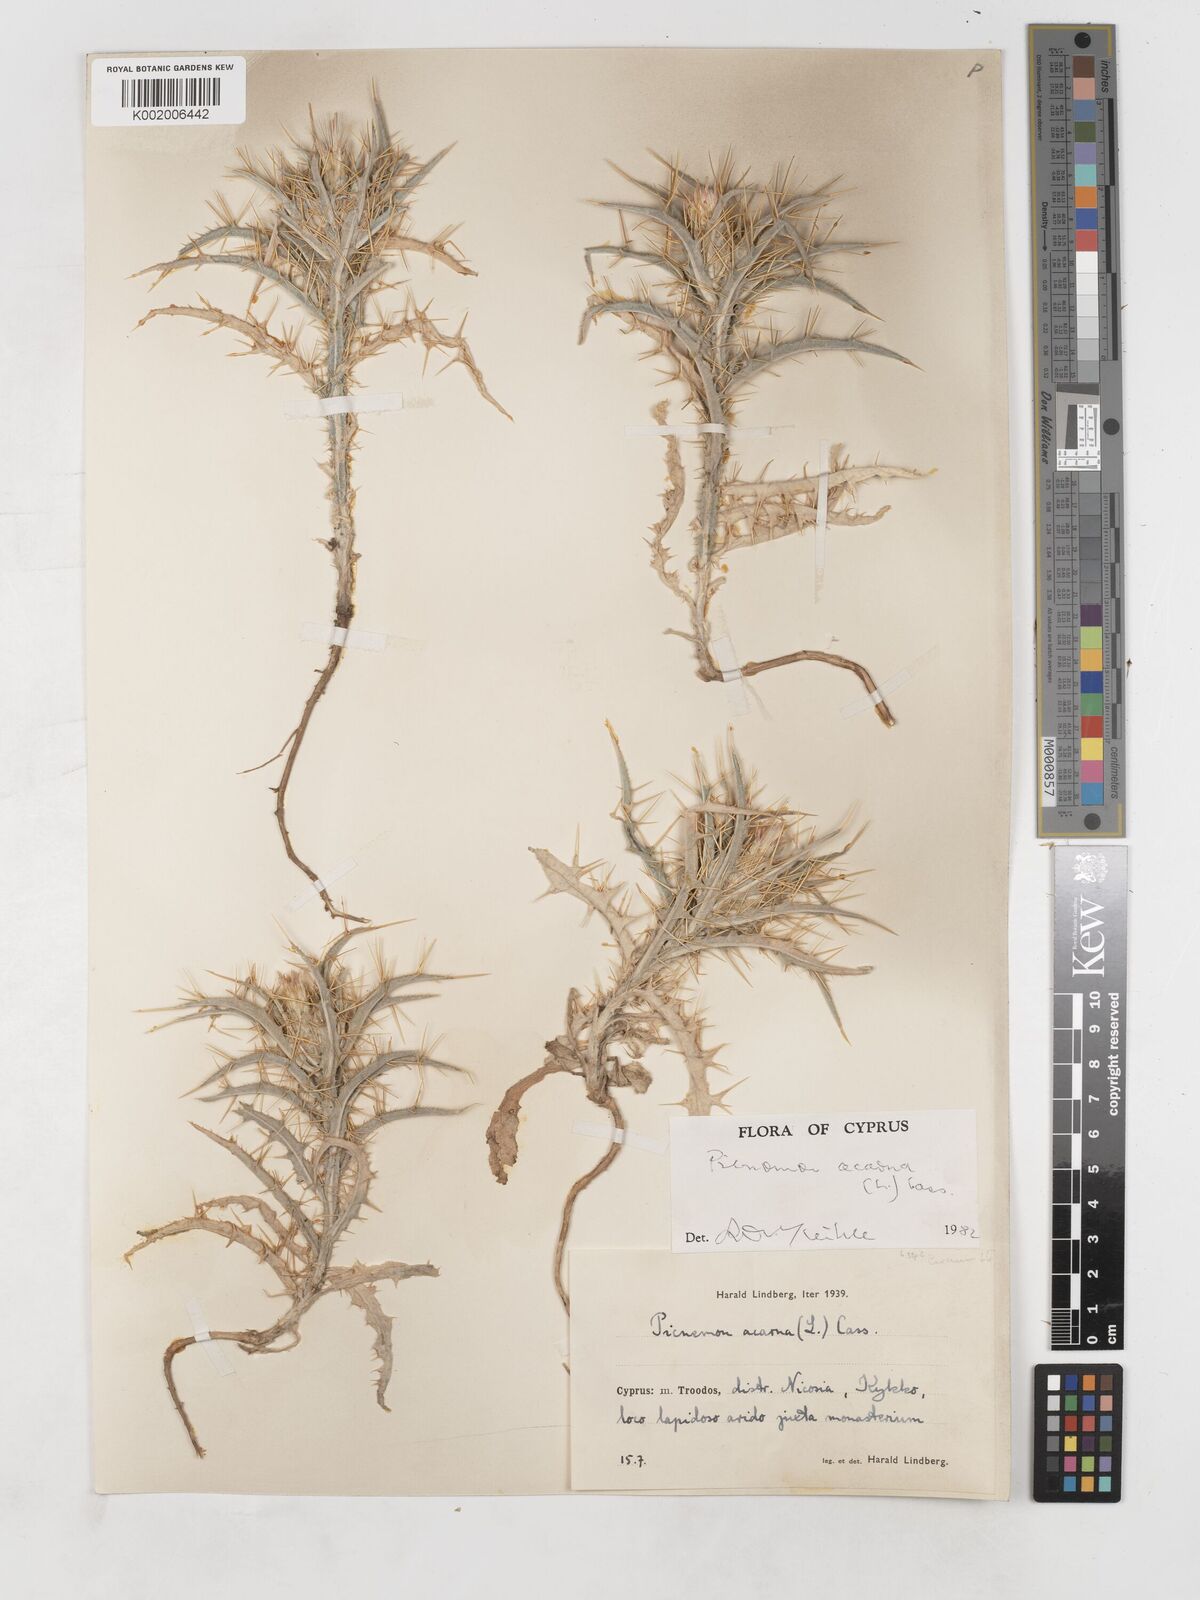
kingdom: Plantae
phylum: Tracheophyta
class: Magnoliopsida
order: Asterales
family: Asteraceae
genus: Picnomon
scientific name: Picnomon acarna
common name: Soldier thistle
